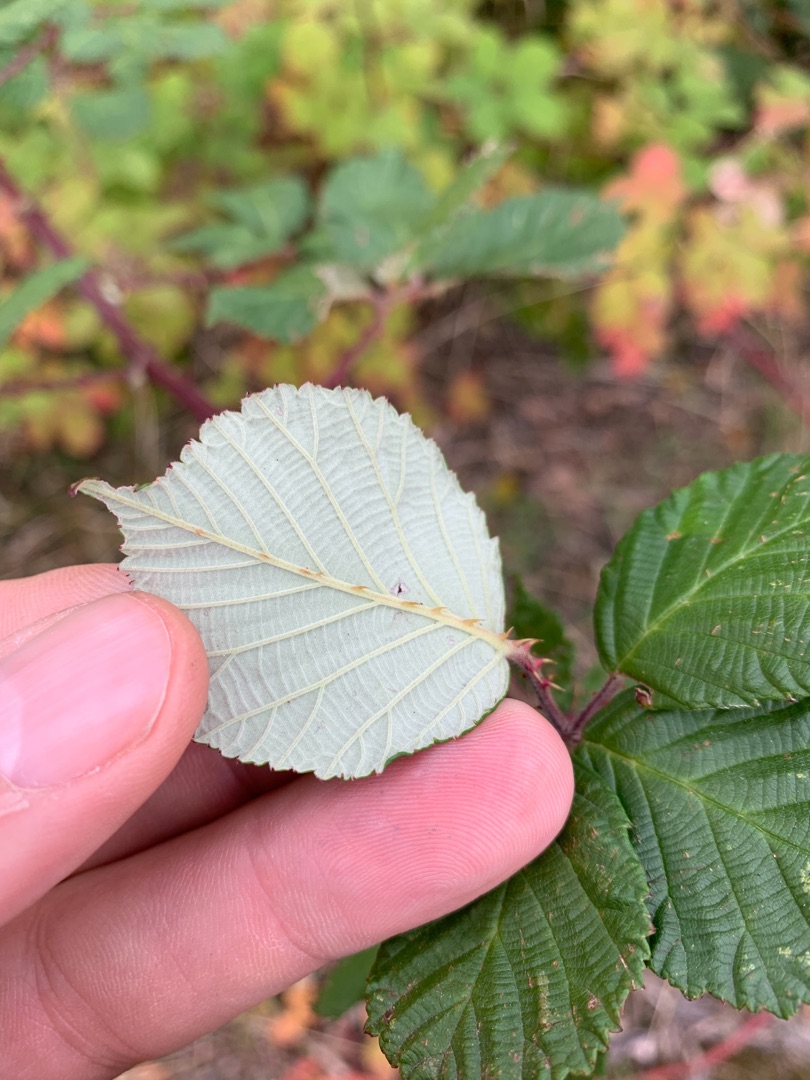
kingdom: Plantae
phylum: Tracheophyta
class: Magnoliopsida
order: Rosales
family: Rosaceae
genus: Rubus
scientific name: Rubus armeniacus
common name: Armensk brombær
